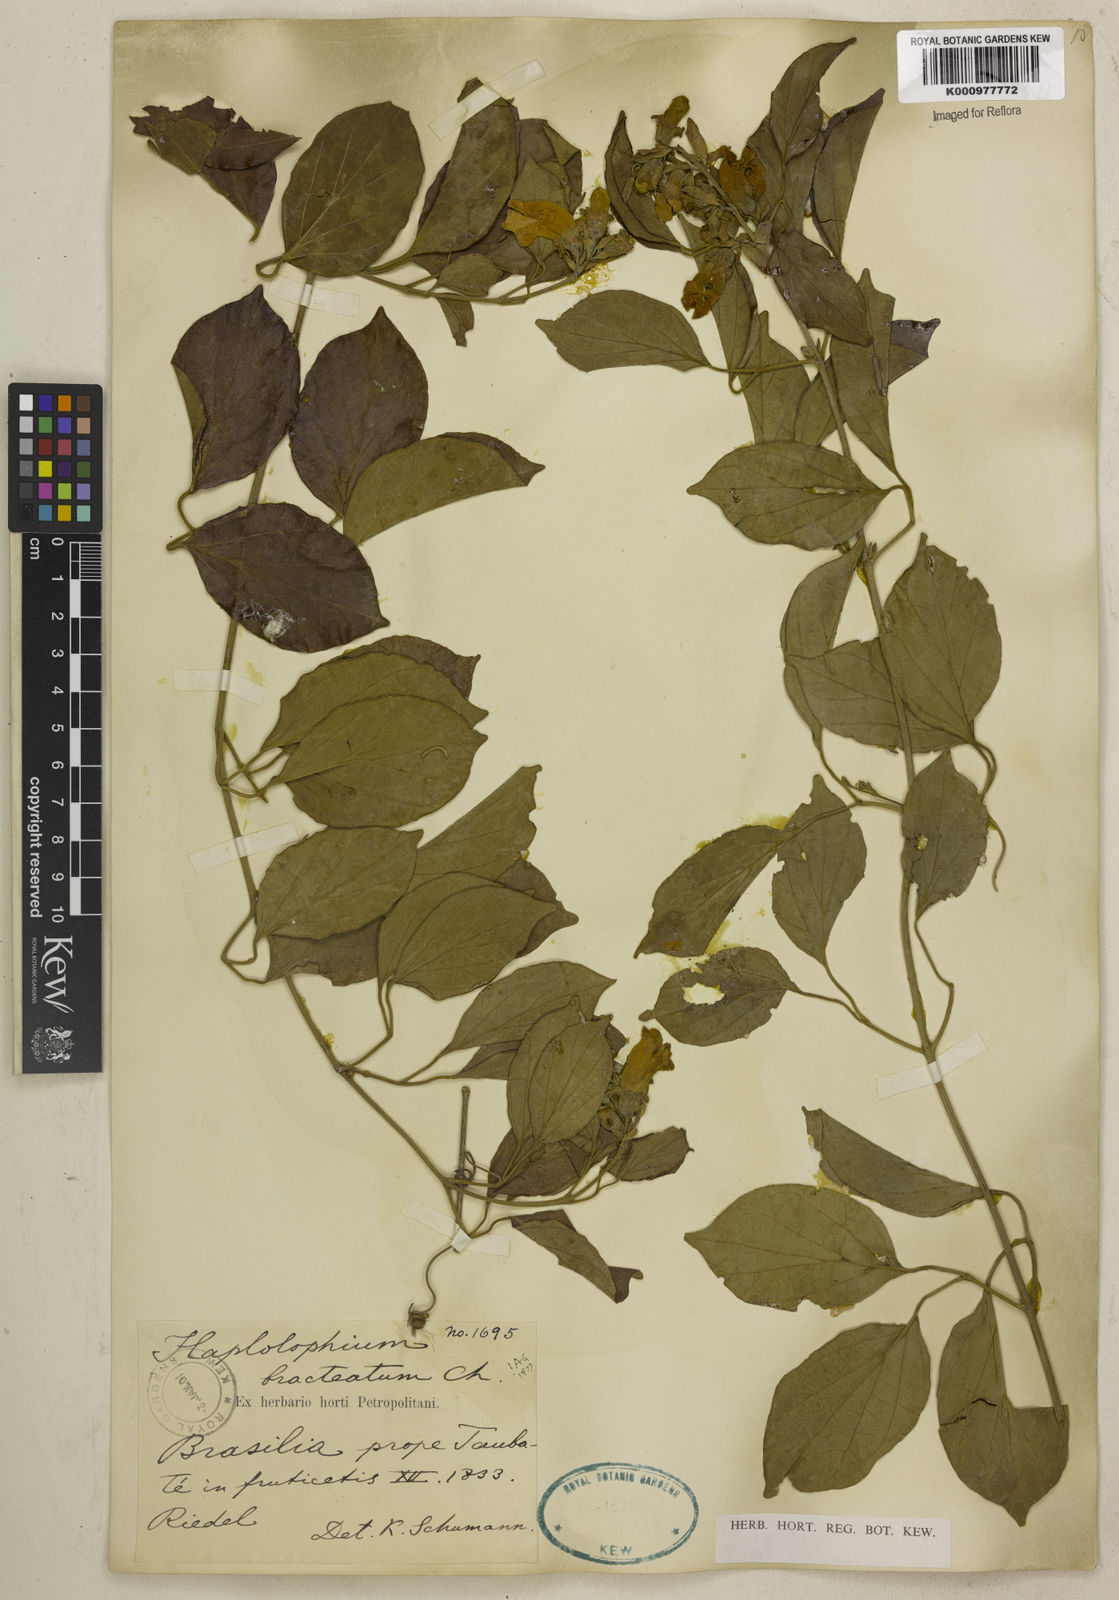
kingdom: Plantae
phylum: Tracheophyta
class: Magnoliopsida
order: Lamiales
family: Bignoniaceae
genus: Amphilophium
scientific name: Amphilophium bracteatum
